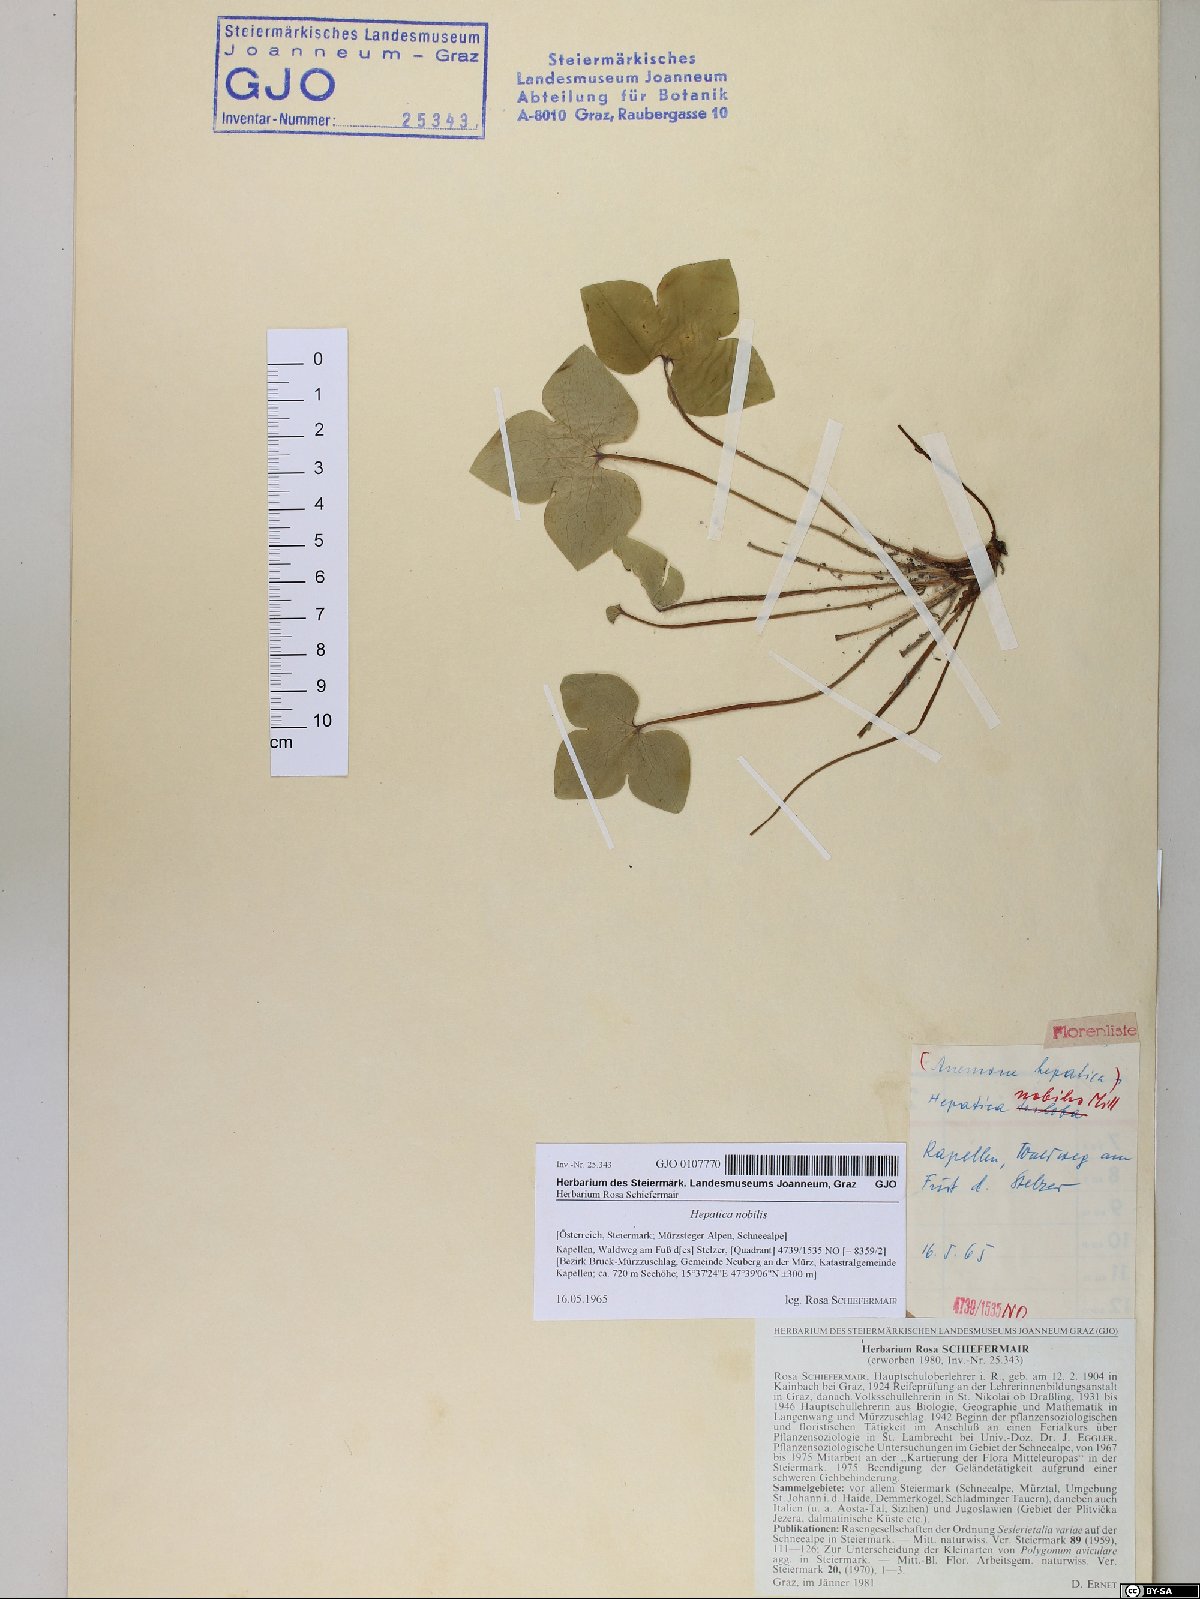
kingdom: Plantae
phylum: Tracheophyta
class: Magnoliopsida
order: Ranunculales
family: Ranunculaceae
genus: Hepatica
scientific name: Hepatica nobilis
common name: Liverleaf
